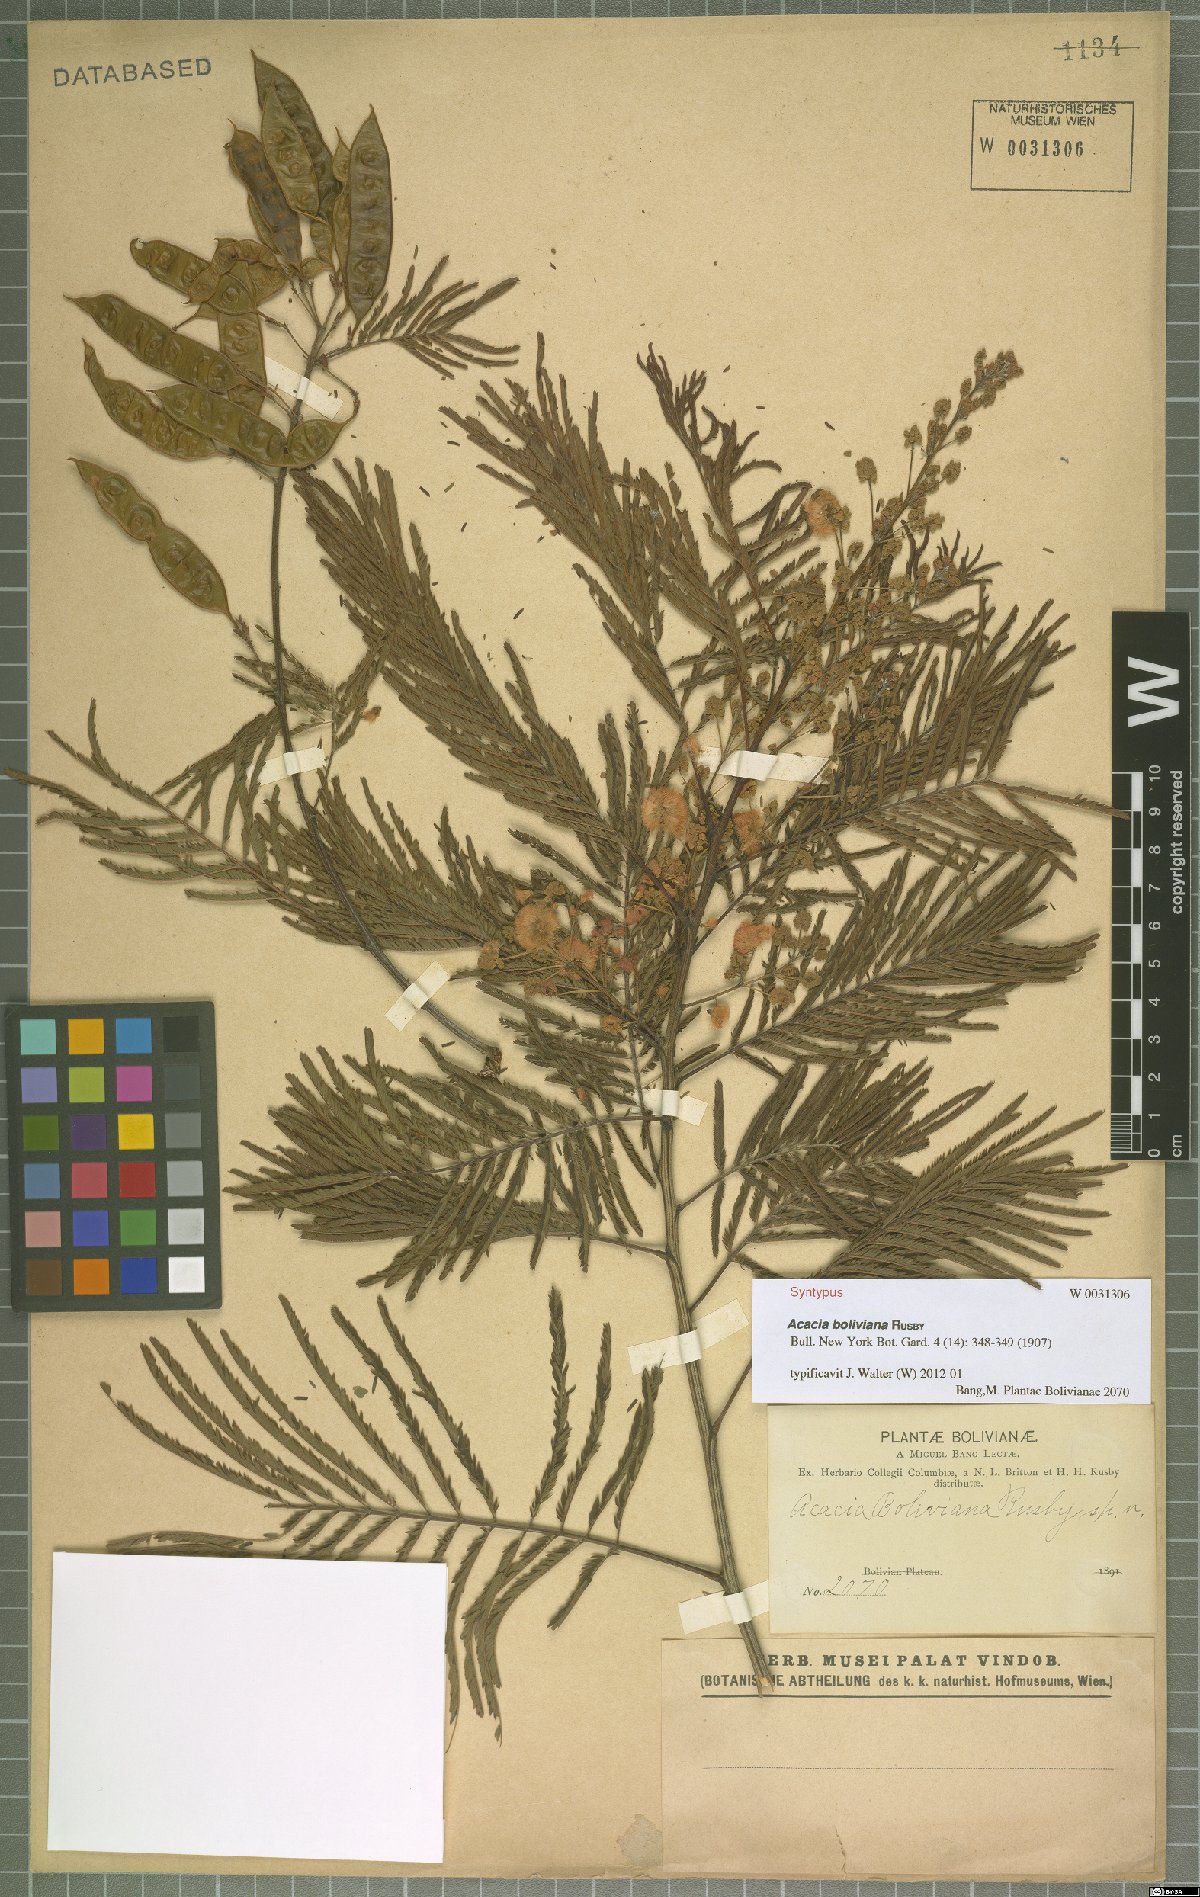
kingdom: Plantae
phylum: Tracheophyta
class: Magnoliopsida
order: Fabales
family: Fabaceae
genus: Acaciella
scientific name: Acaciella angustissima
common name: Prairie acacia
